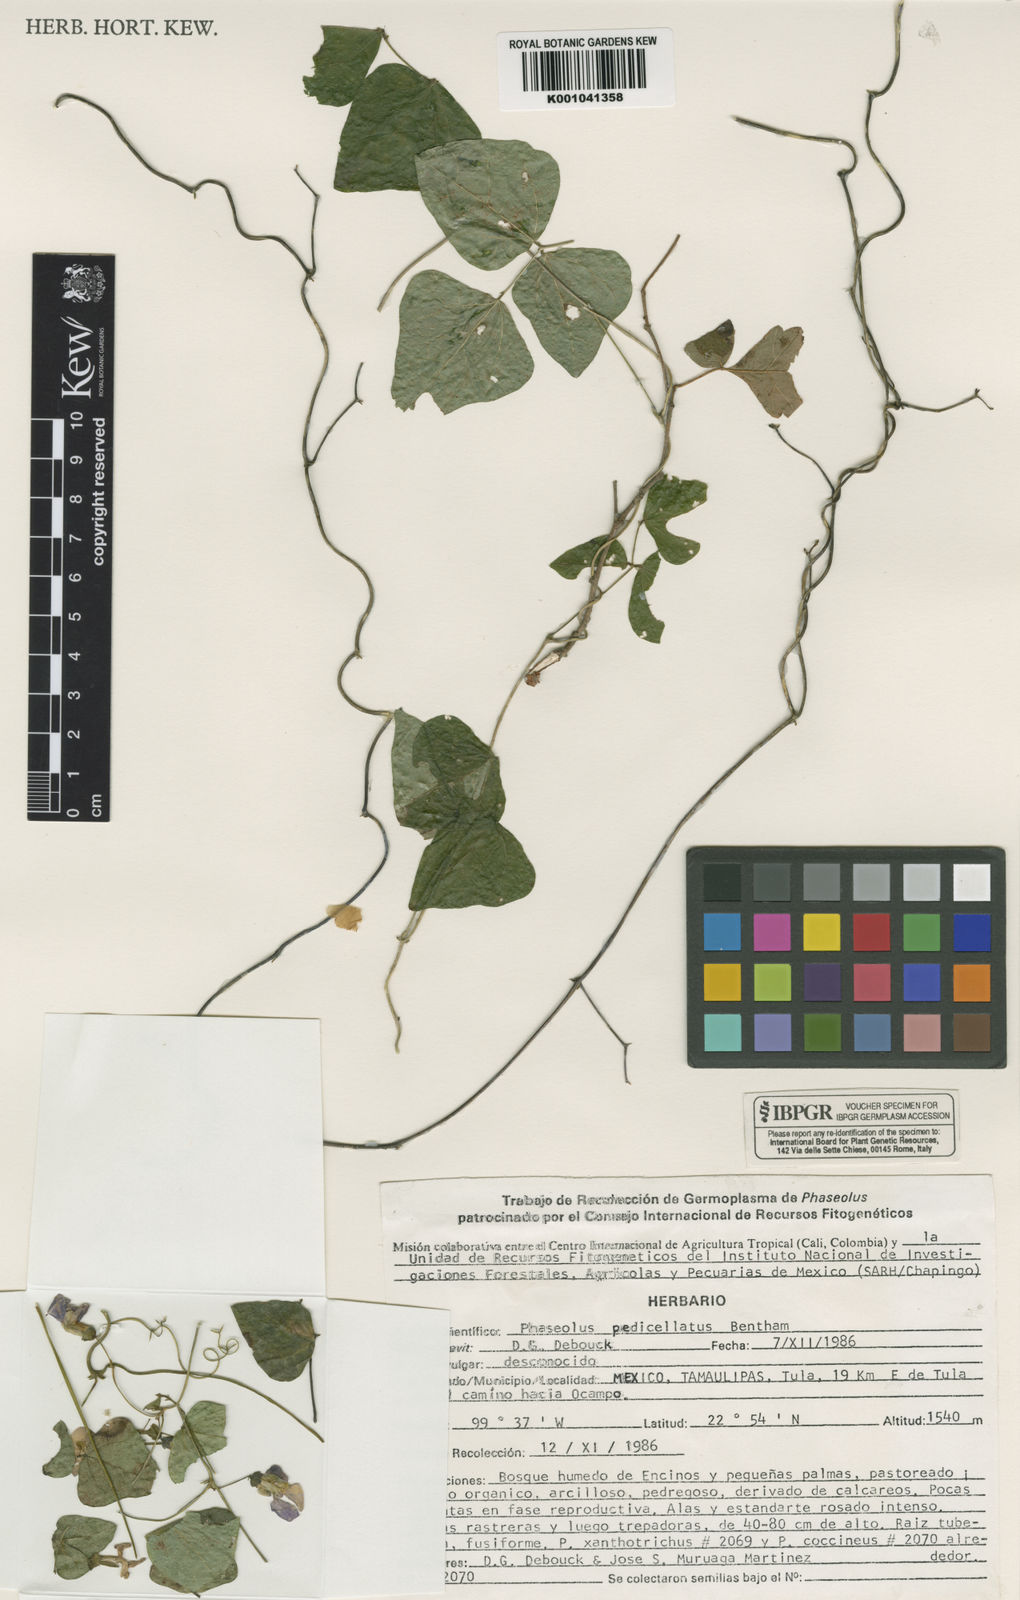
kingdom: Plantae
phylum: Tracheophyta
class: Magnoliopsida
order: Fabales
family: Fabaceae
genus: Phaseolus
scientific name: Phaseolus pedicellatus
